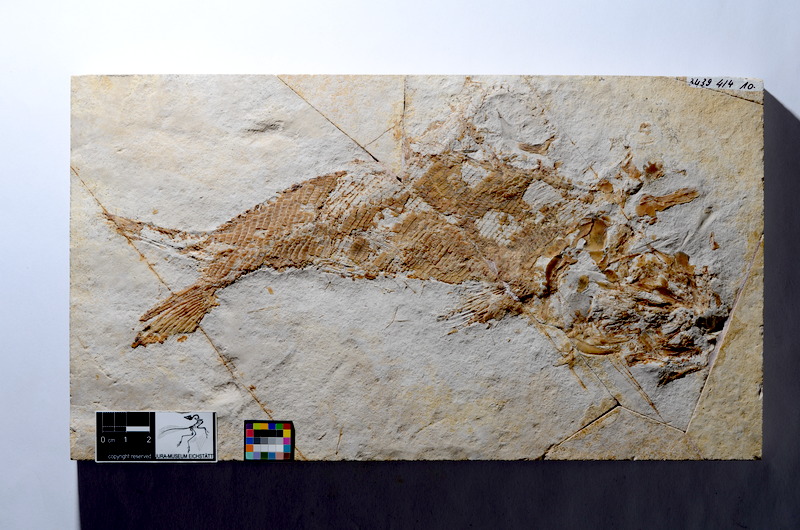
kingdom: Animalia
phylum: Chordata
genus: Elongofuro
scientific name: Elongofuro
